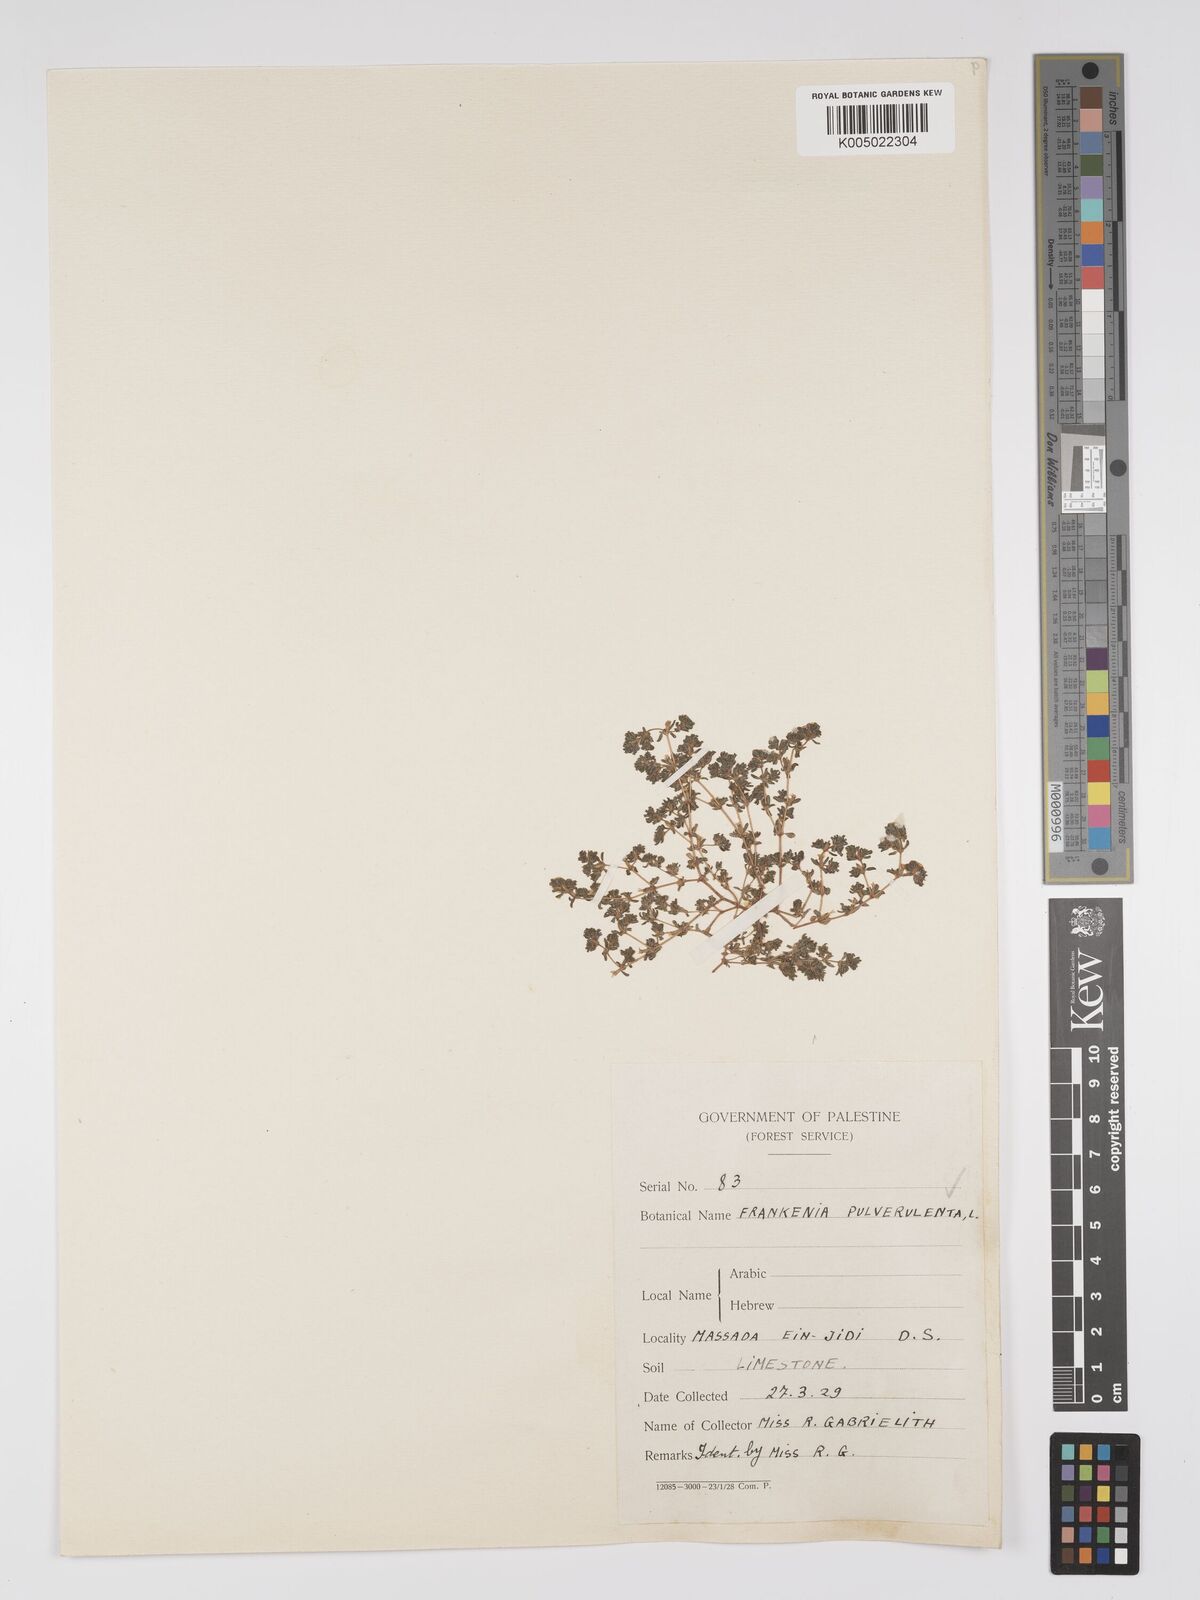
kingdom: Plantae
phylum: Tracheophyta
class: Magnoliopsida
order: Caryophyllales
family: Frankeniaceae
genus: Frankenia
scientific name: Frankenia pulverulenta
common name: European seaheath
